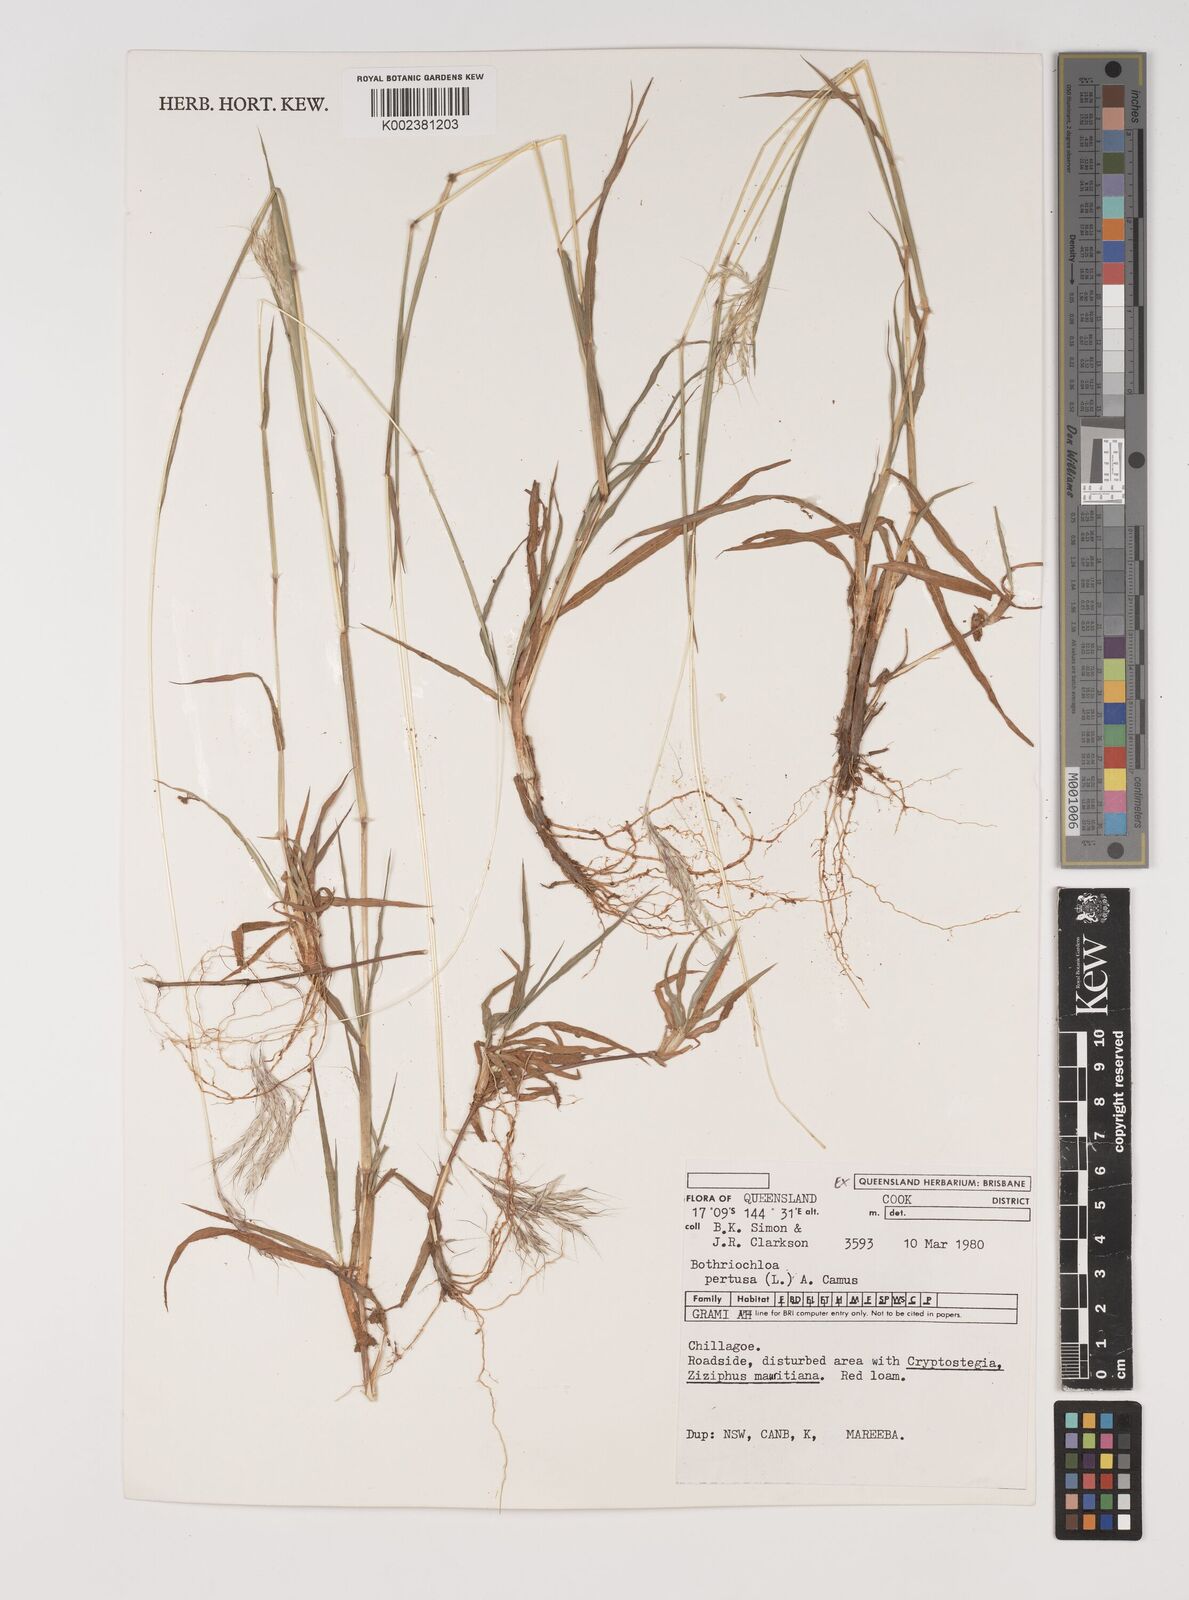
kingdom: Plantae
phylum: Tracheophyta
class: Liliopsida
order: Poales
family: Poaceae
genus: Bothriochloa
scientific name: Bothriochloa pertusa
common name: Pitted beardgrass
